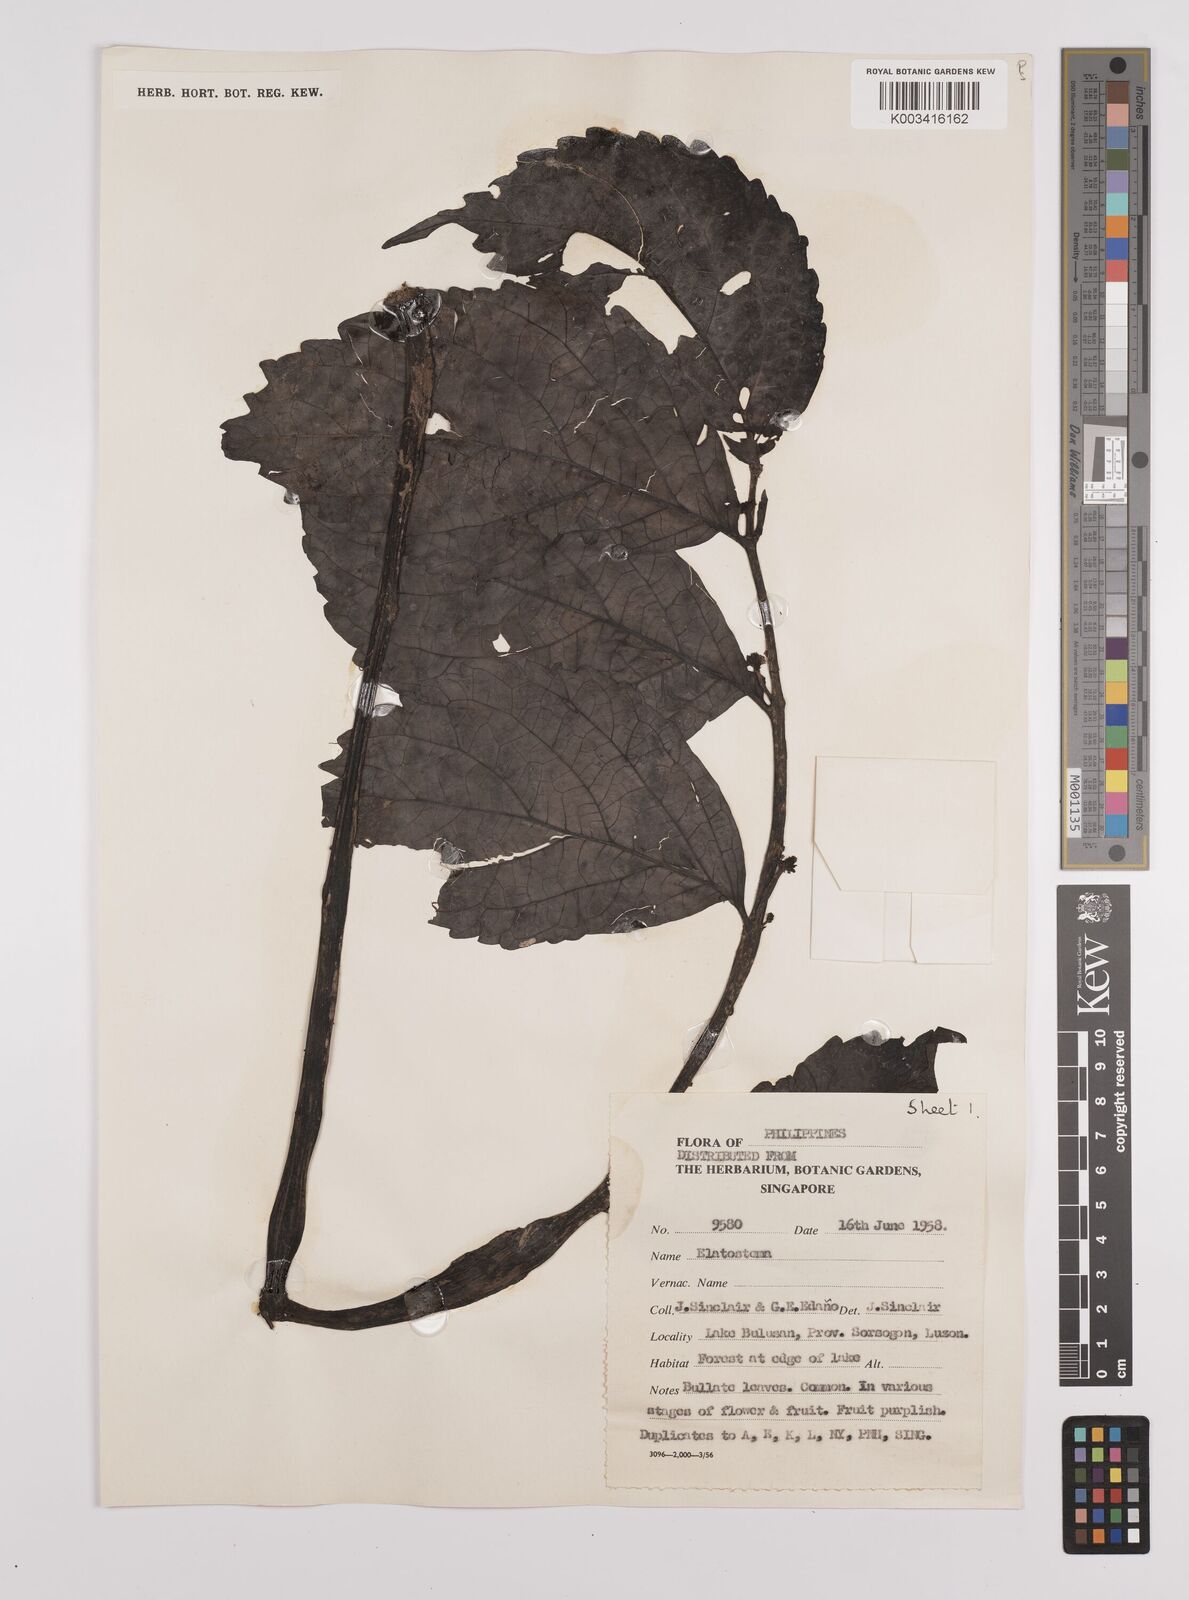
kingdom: Plantae
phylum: Tracheophyta
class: Magnoliopsida
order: Rosales
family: Urticaceae
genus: Elatostema
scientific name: Elatostema
